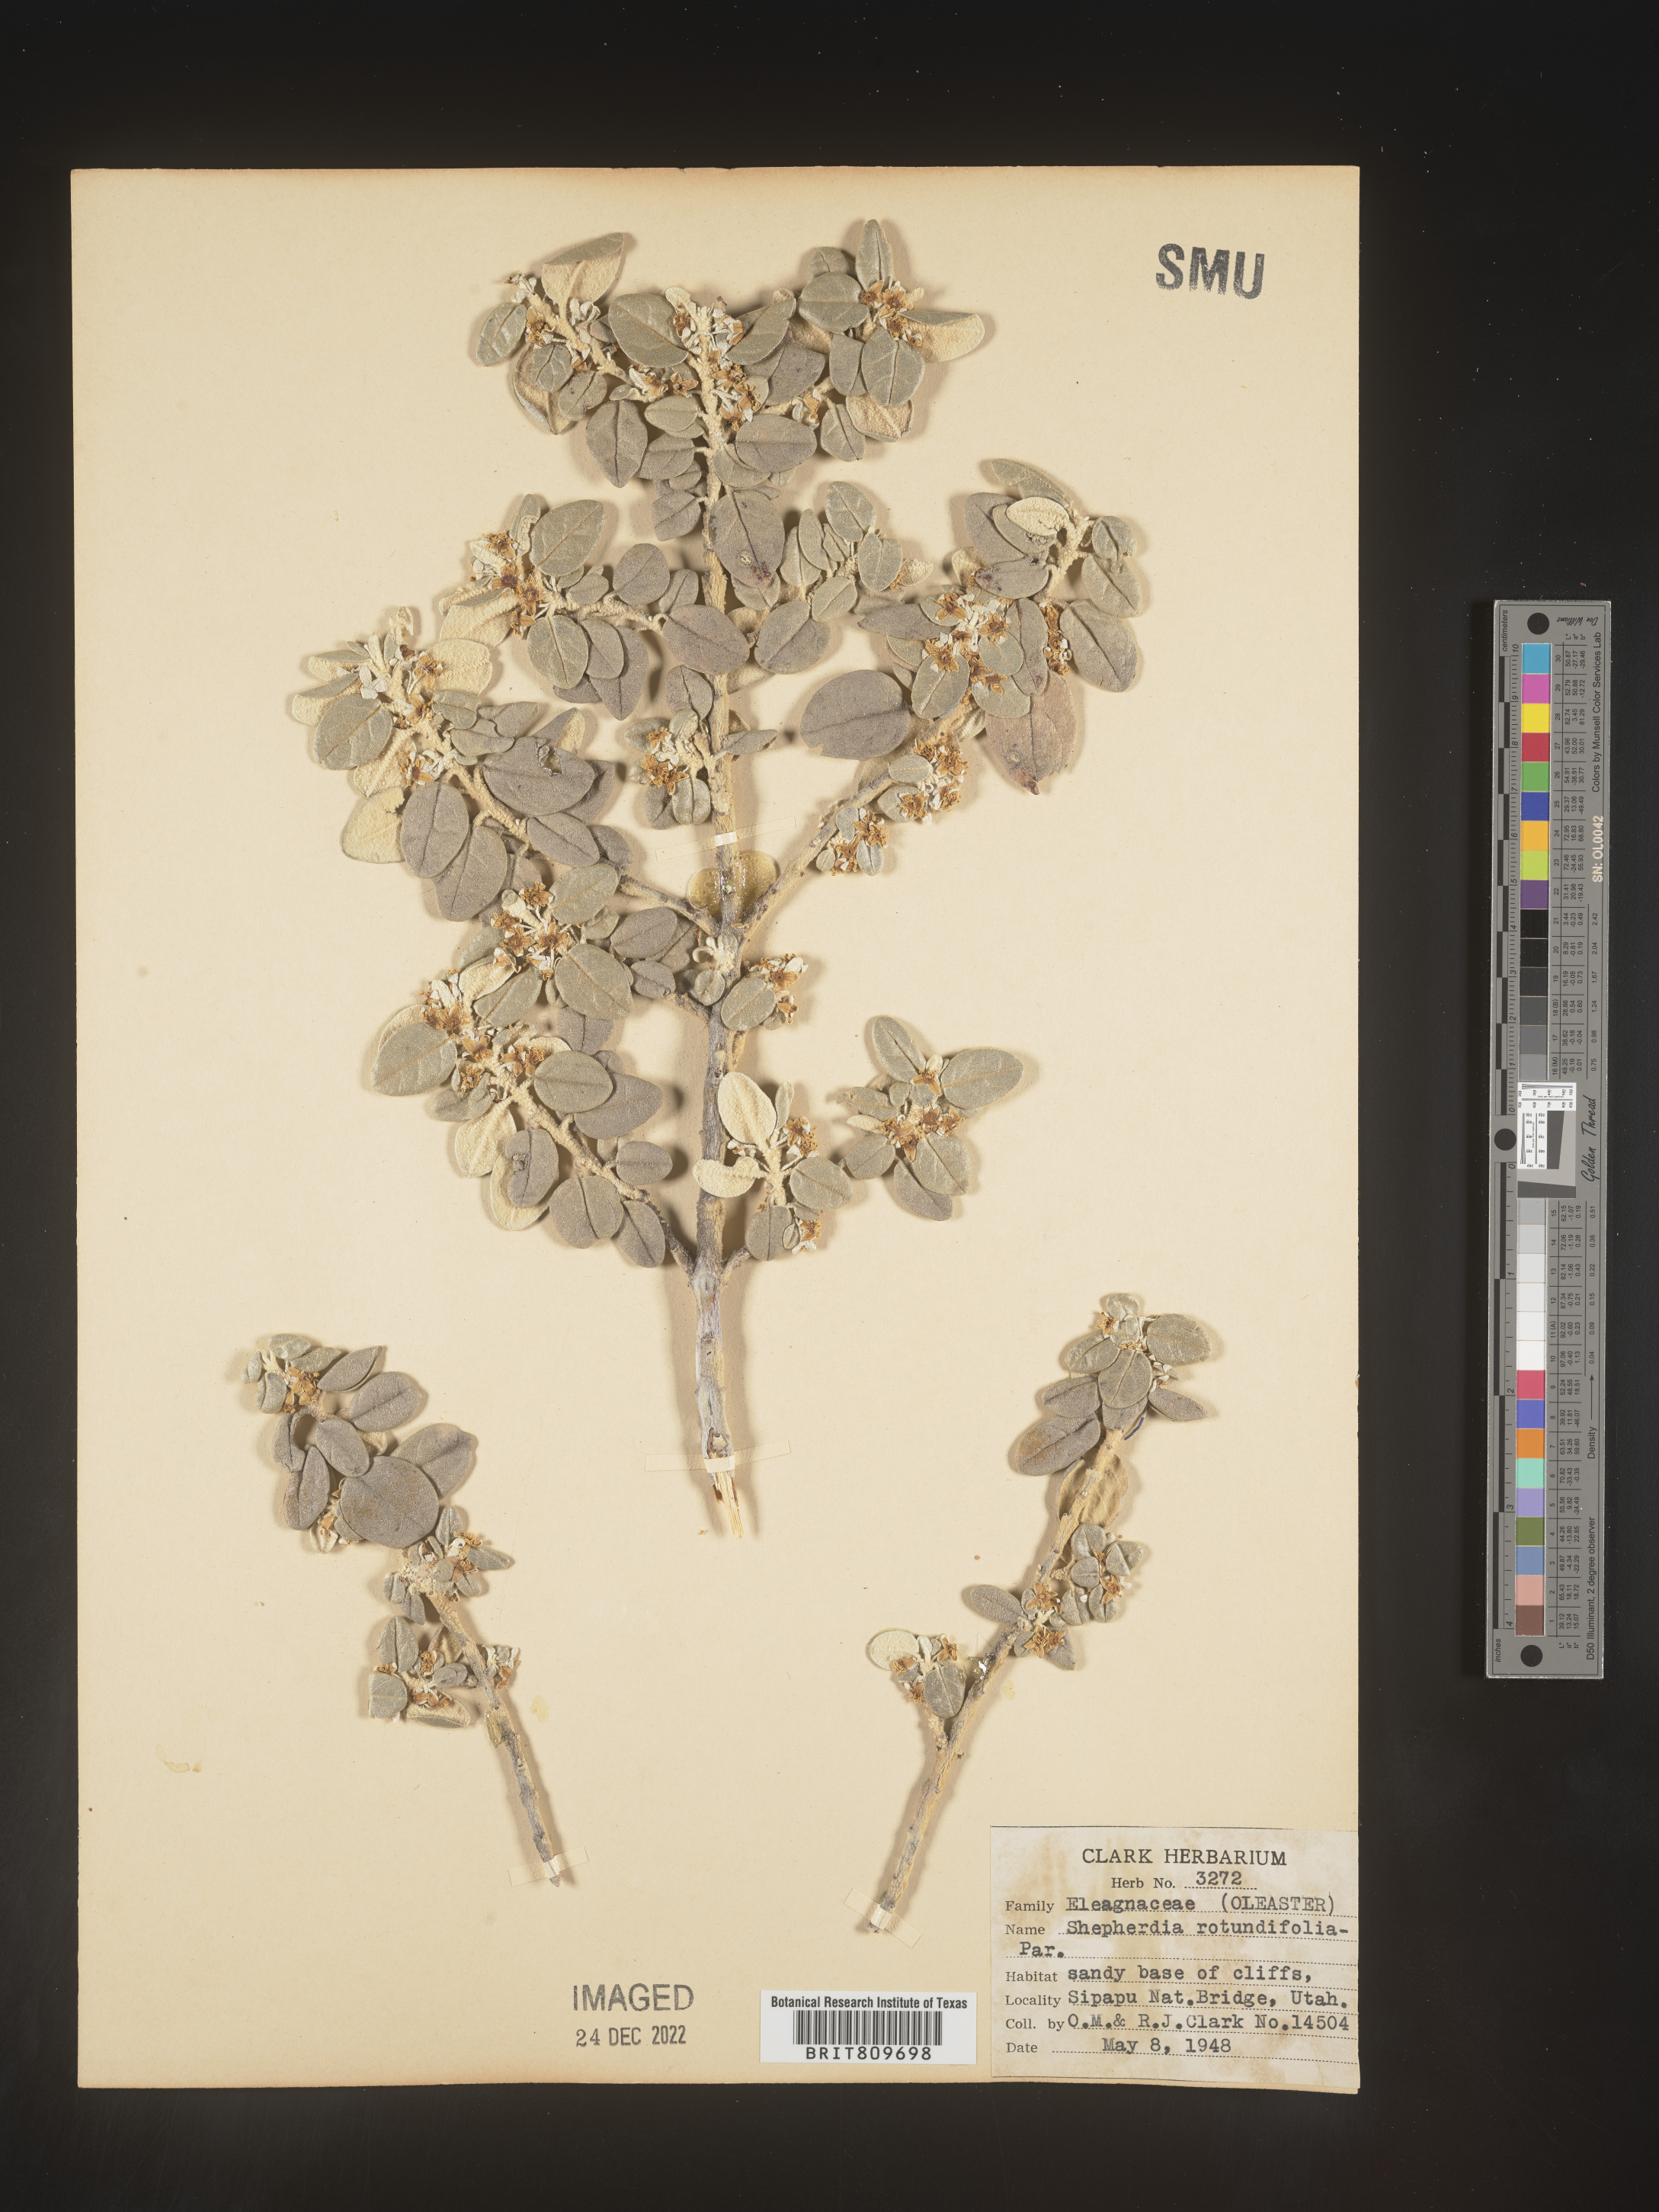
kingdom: Plantae
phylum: Tracheophyta
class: Magnoliopsida
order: Rosales
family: Elaeagnaceae
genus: Shepherdia
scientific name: Shepherdia rotundifolia
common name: Silverscale
